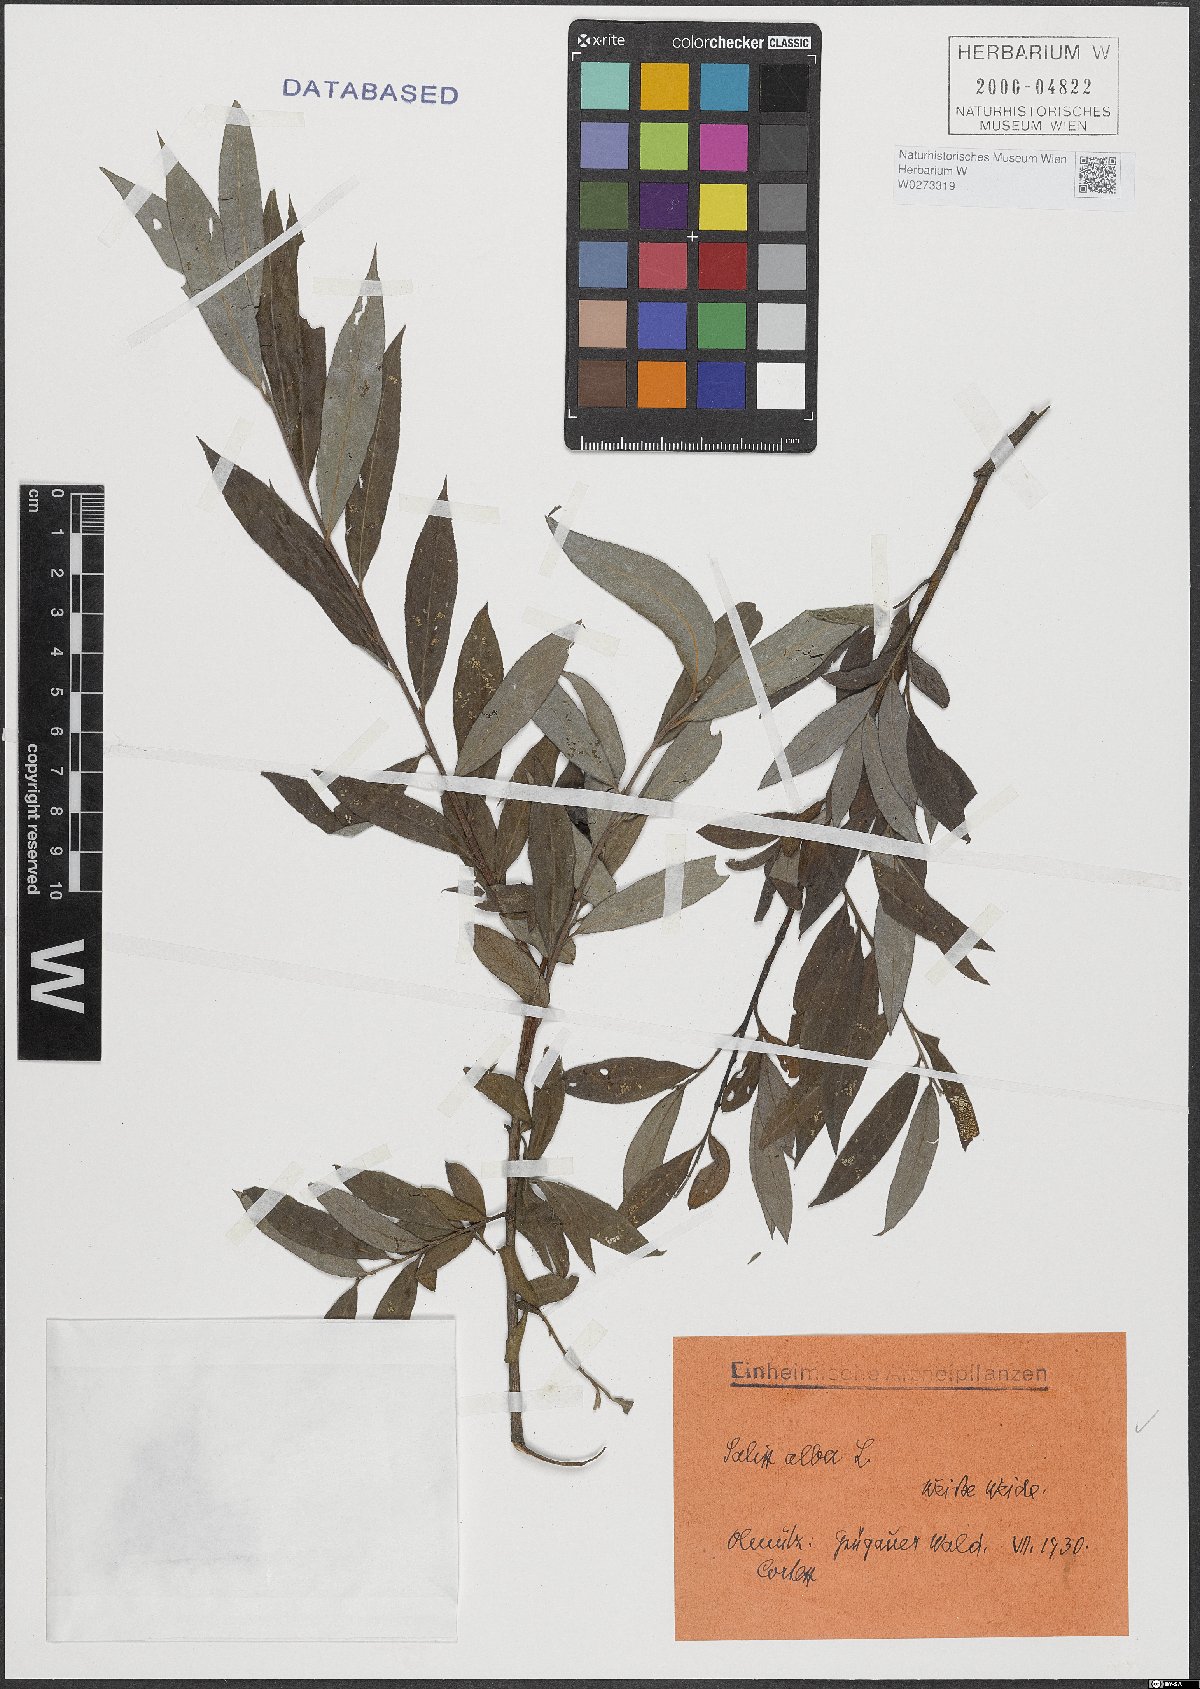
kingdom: Plantae
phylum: Tracheophyta
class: Magnoliopsida
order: Malpighiales
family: Salicaceae
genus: Salix
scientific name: Salix alba
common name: White willow
